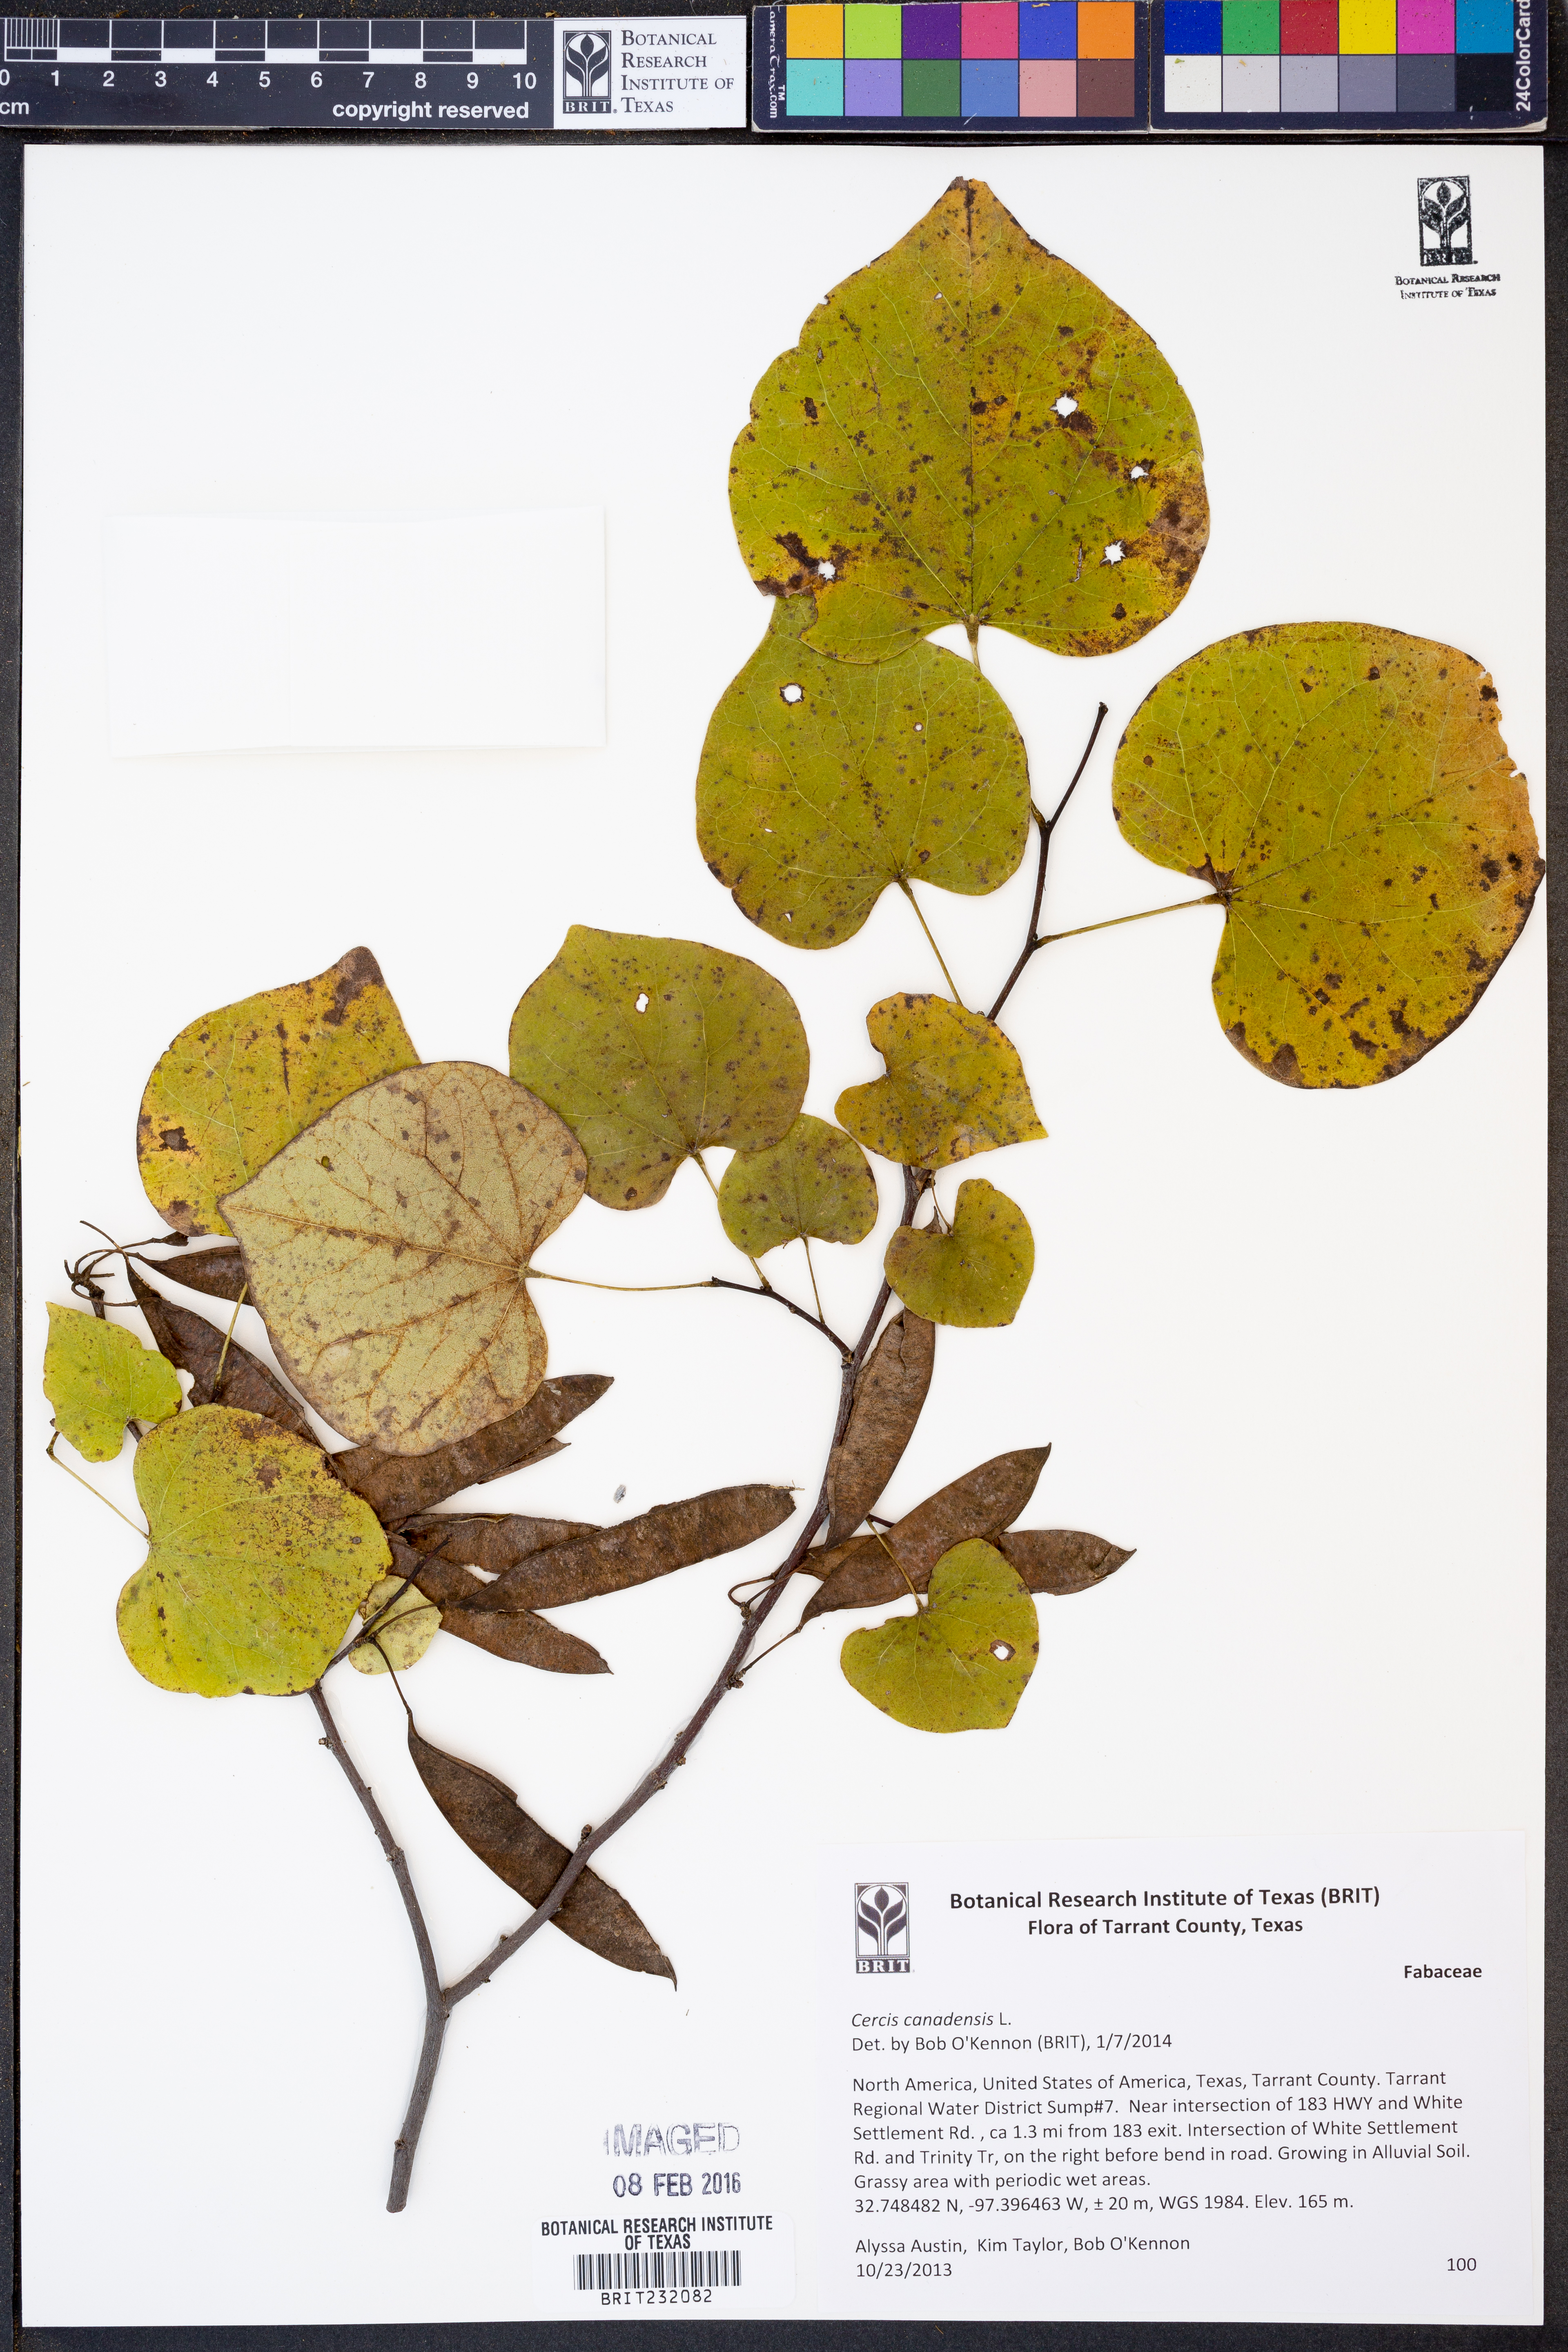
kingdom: Plantae
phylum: Tracheophyta
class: Magnoliopsida
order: Fabales
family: Fabaceae
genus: Cercis
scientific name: Cercis canadensis
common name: Eastern redbud
